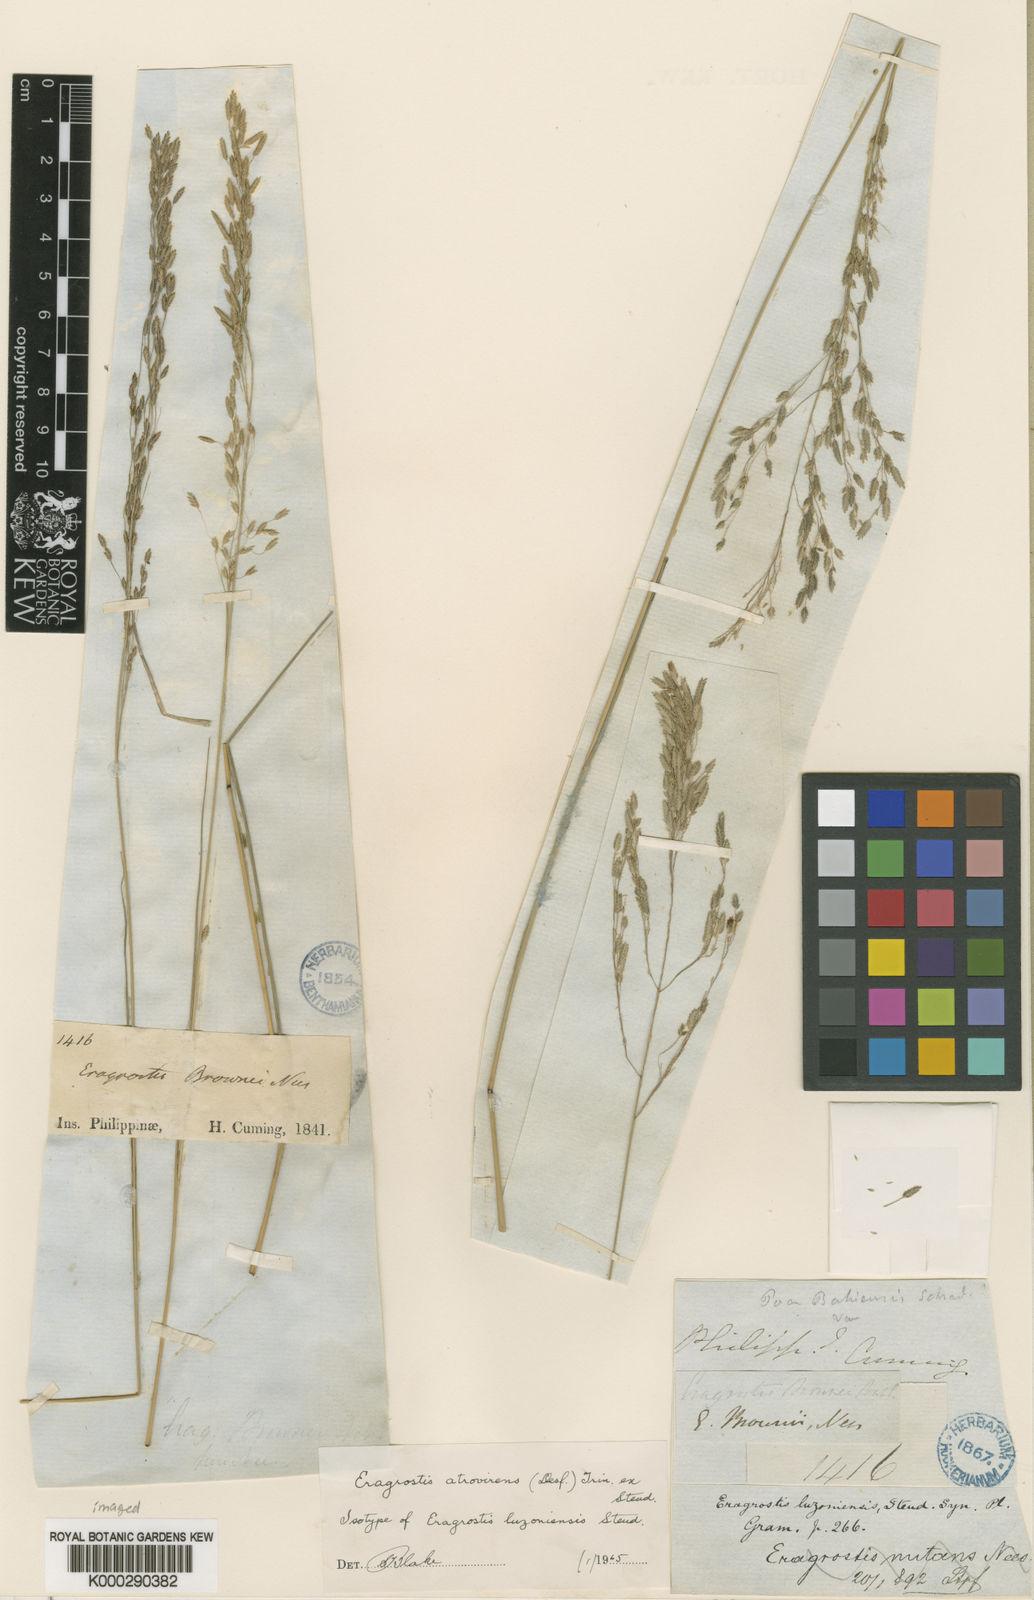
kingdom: Plantae
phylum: Tracheophyta
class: Liliopsida
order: Poales
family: Poaceae
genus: Eragrostis
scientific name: Eragrostis atrovirens
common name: Thalia lovegrass
